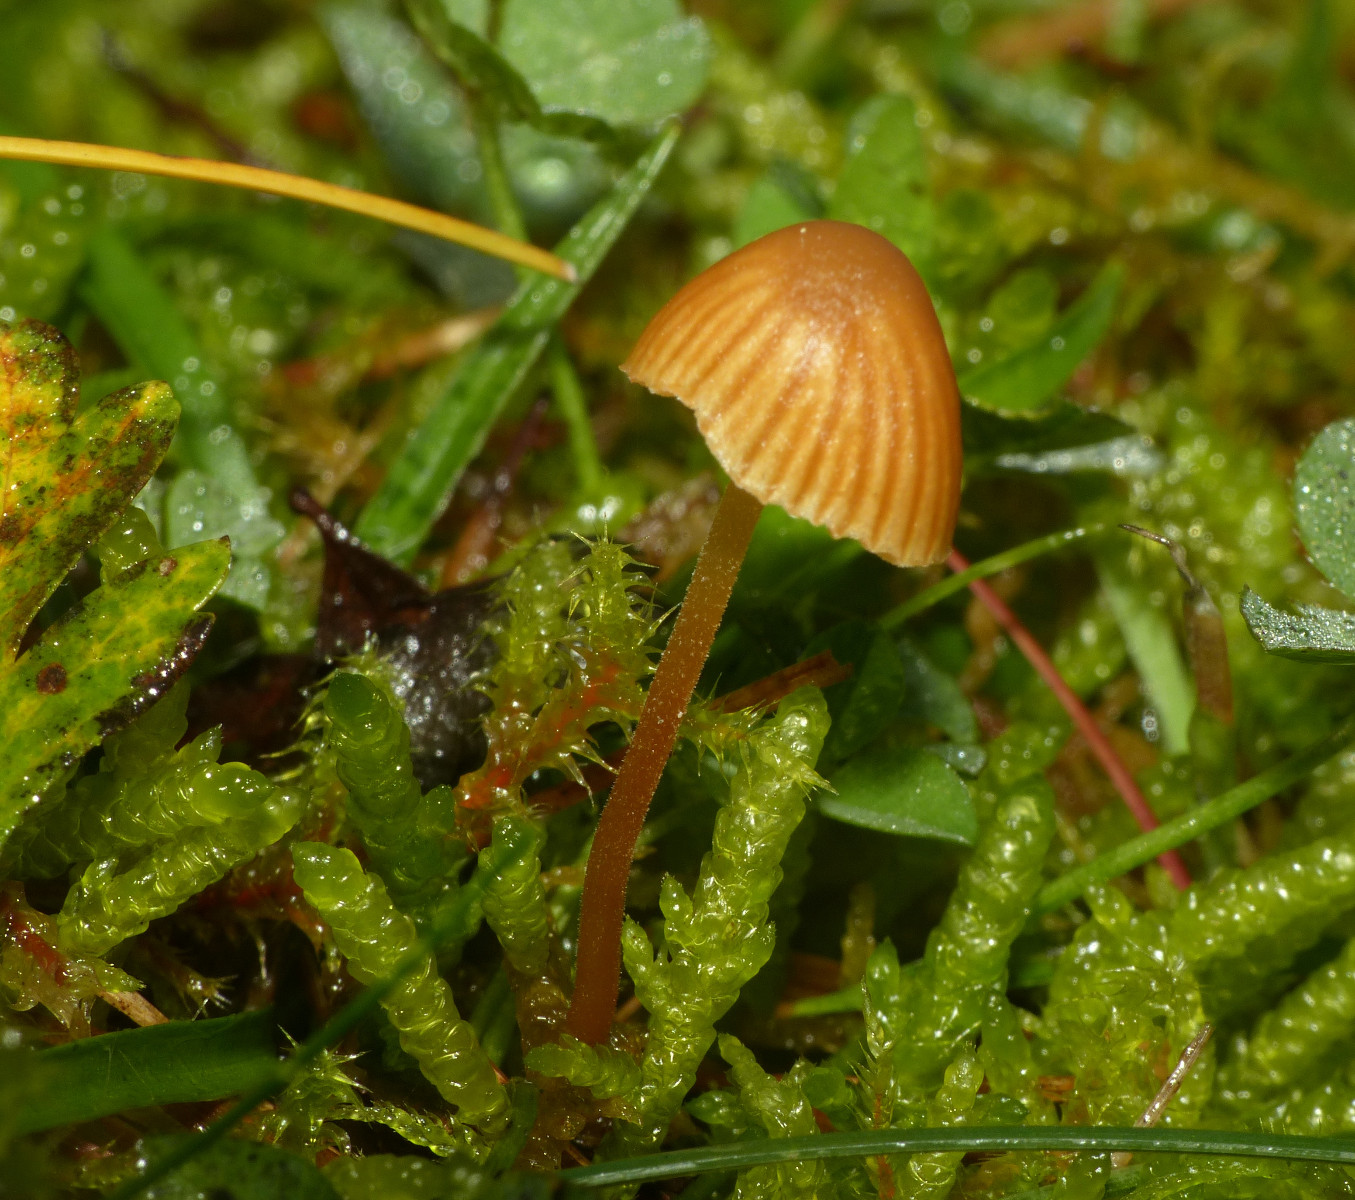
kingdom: Fungi
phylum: Basidiomycota
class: Agaricomycetes
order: Agaricales
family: Hymenogastraceae
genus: Galerina
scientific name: Galerina
